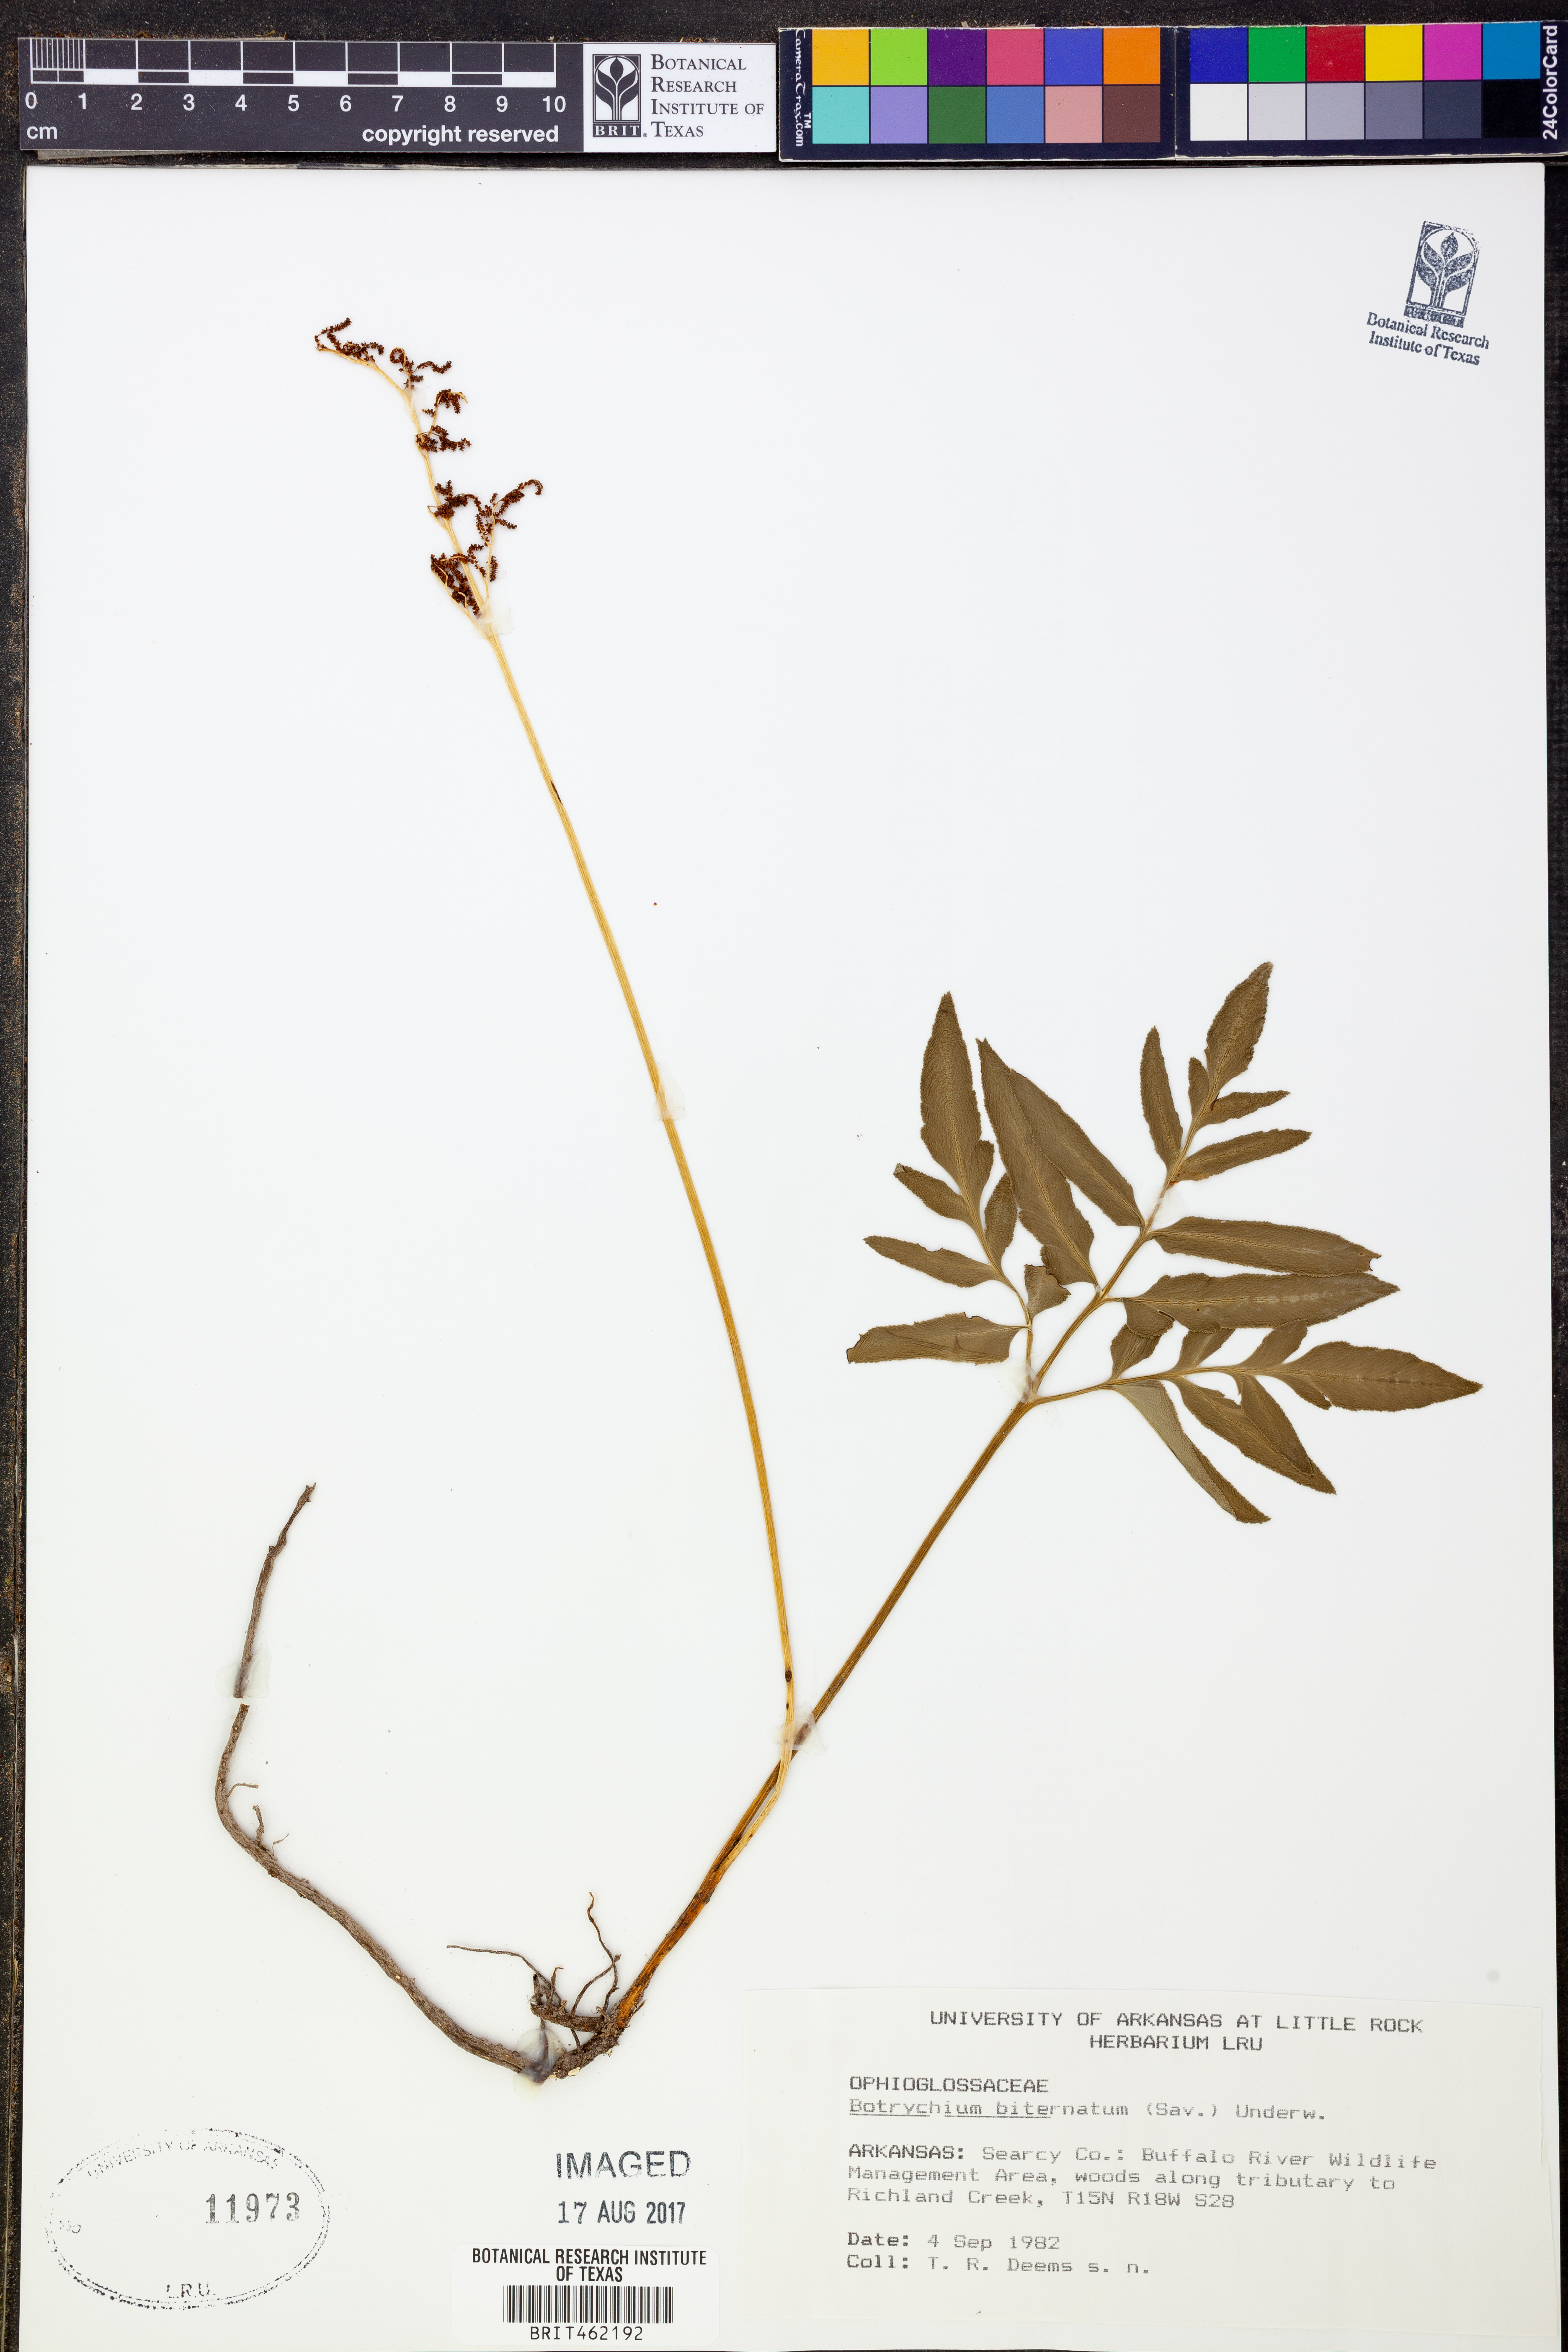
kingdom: Plantae
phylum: Tracheophyta
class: Polypodiopsida
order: Ophioglossales
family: Ophioglossaceae
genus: Sceptridium
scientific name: Sceptridium biternatum
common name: Sparse-lobed grapefern
